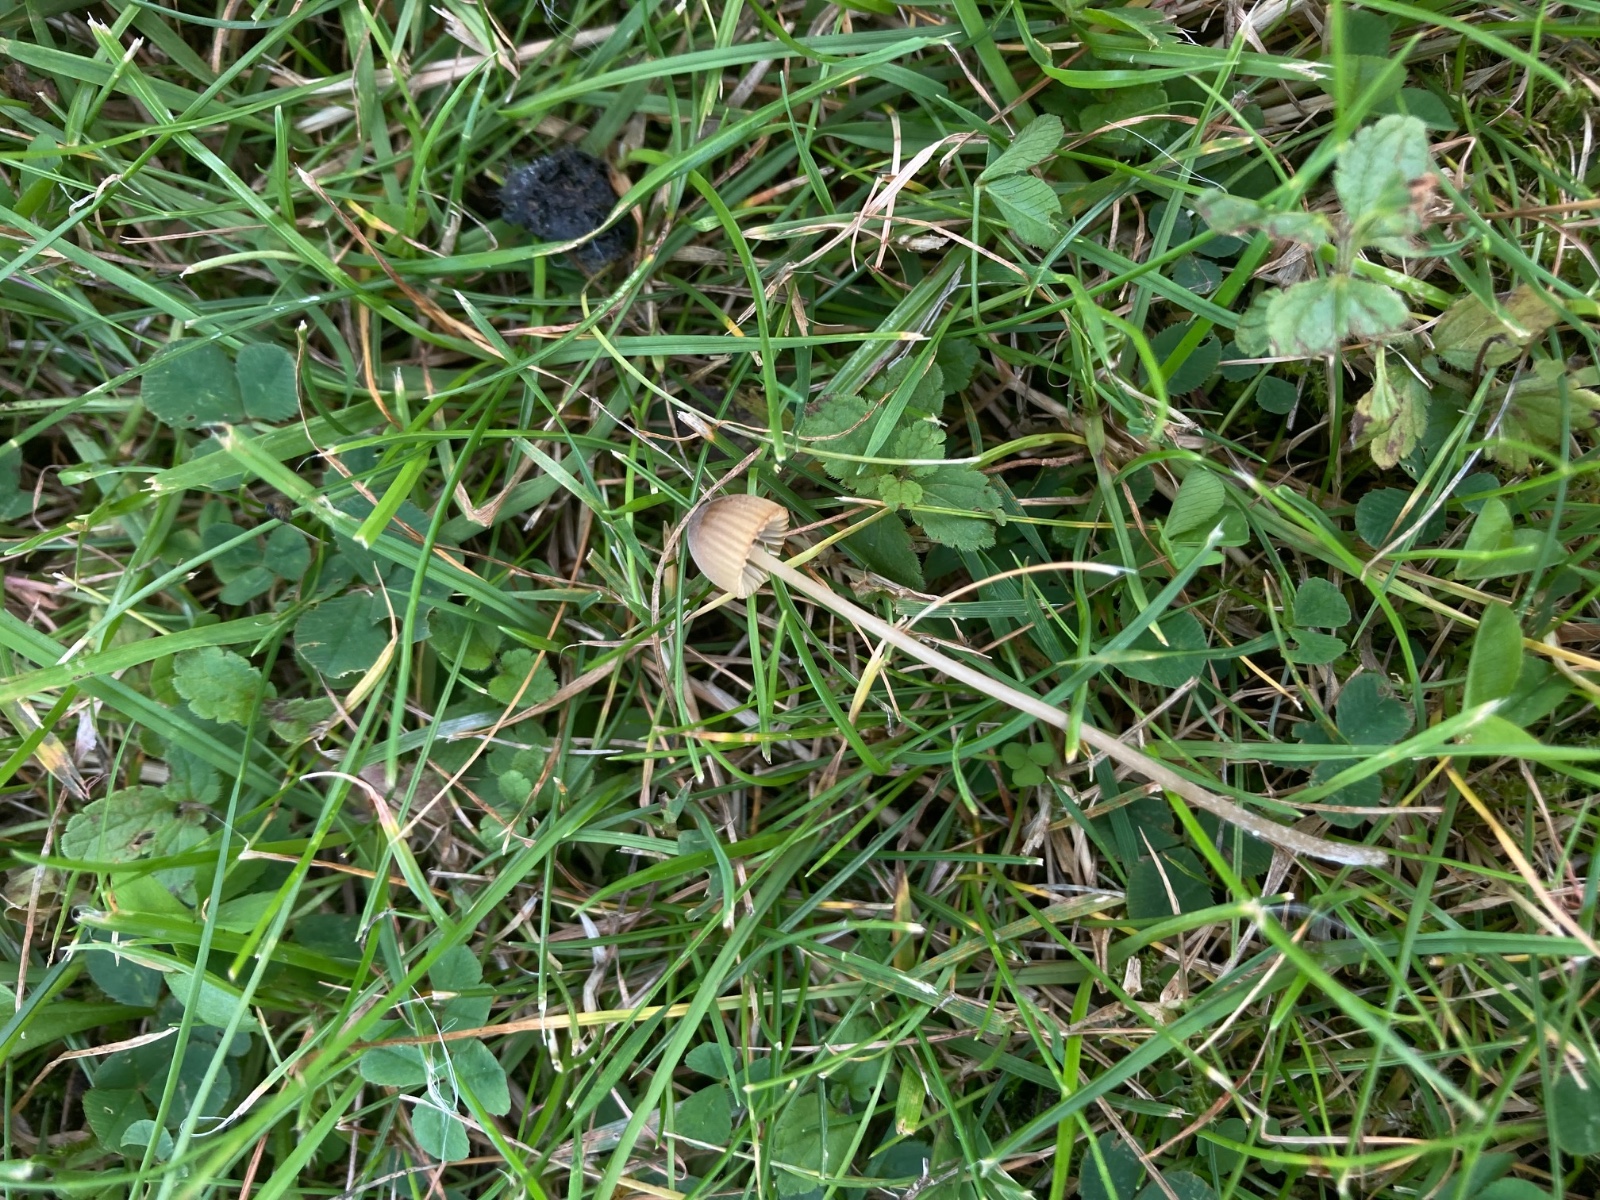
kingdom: Fungi
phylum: Basidiomycota
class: Agaricomycetes
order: Agaricales
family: Mycenaceae
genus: Mycena
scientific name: Mycena olivaceomarginata
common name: brunægget huesvamp
